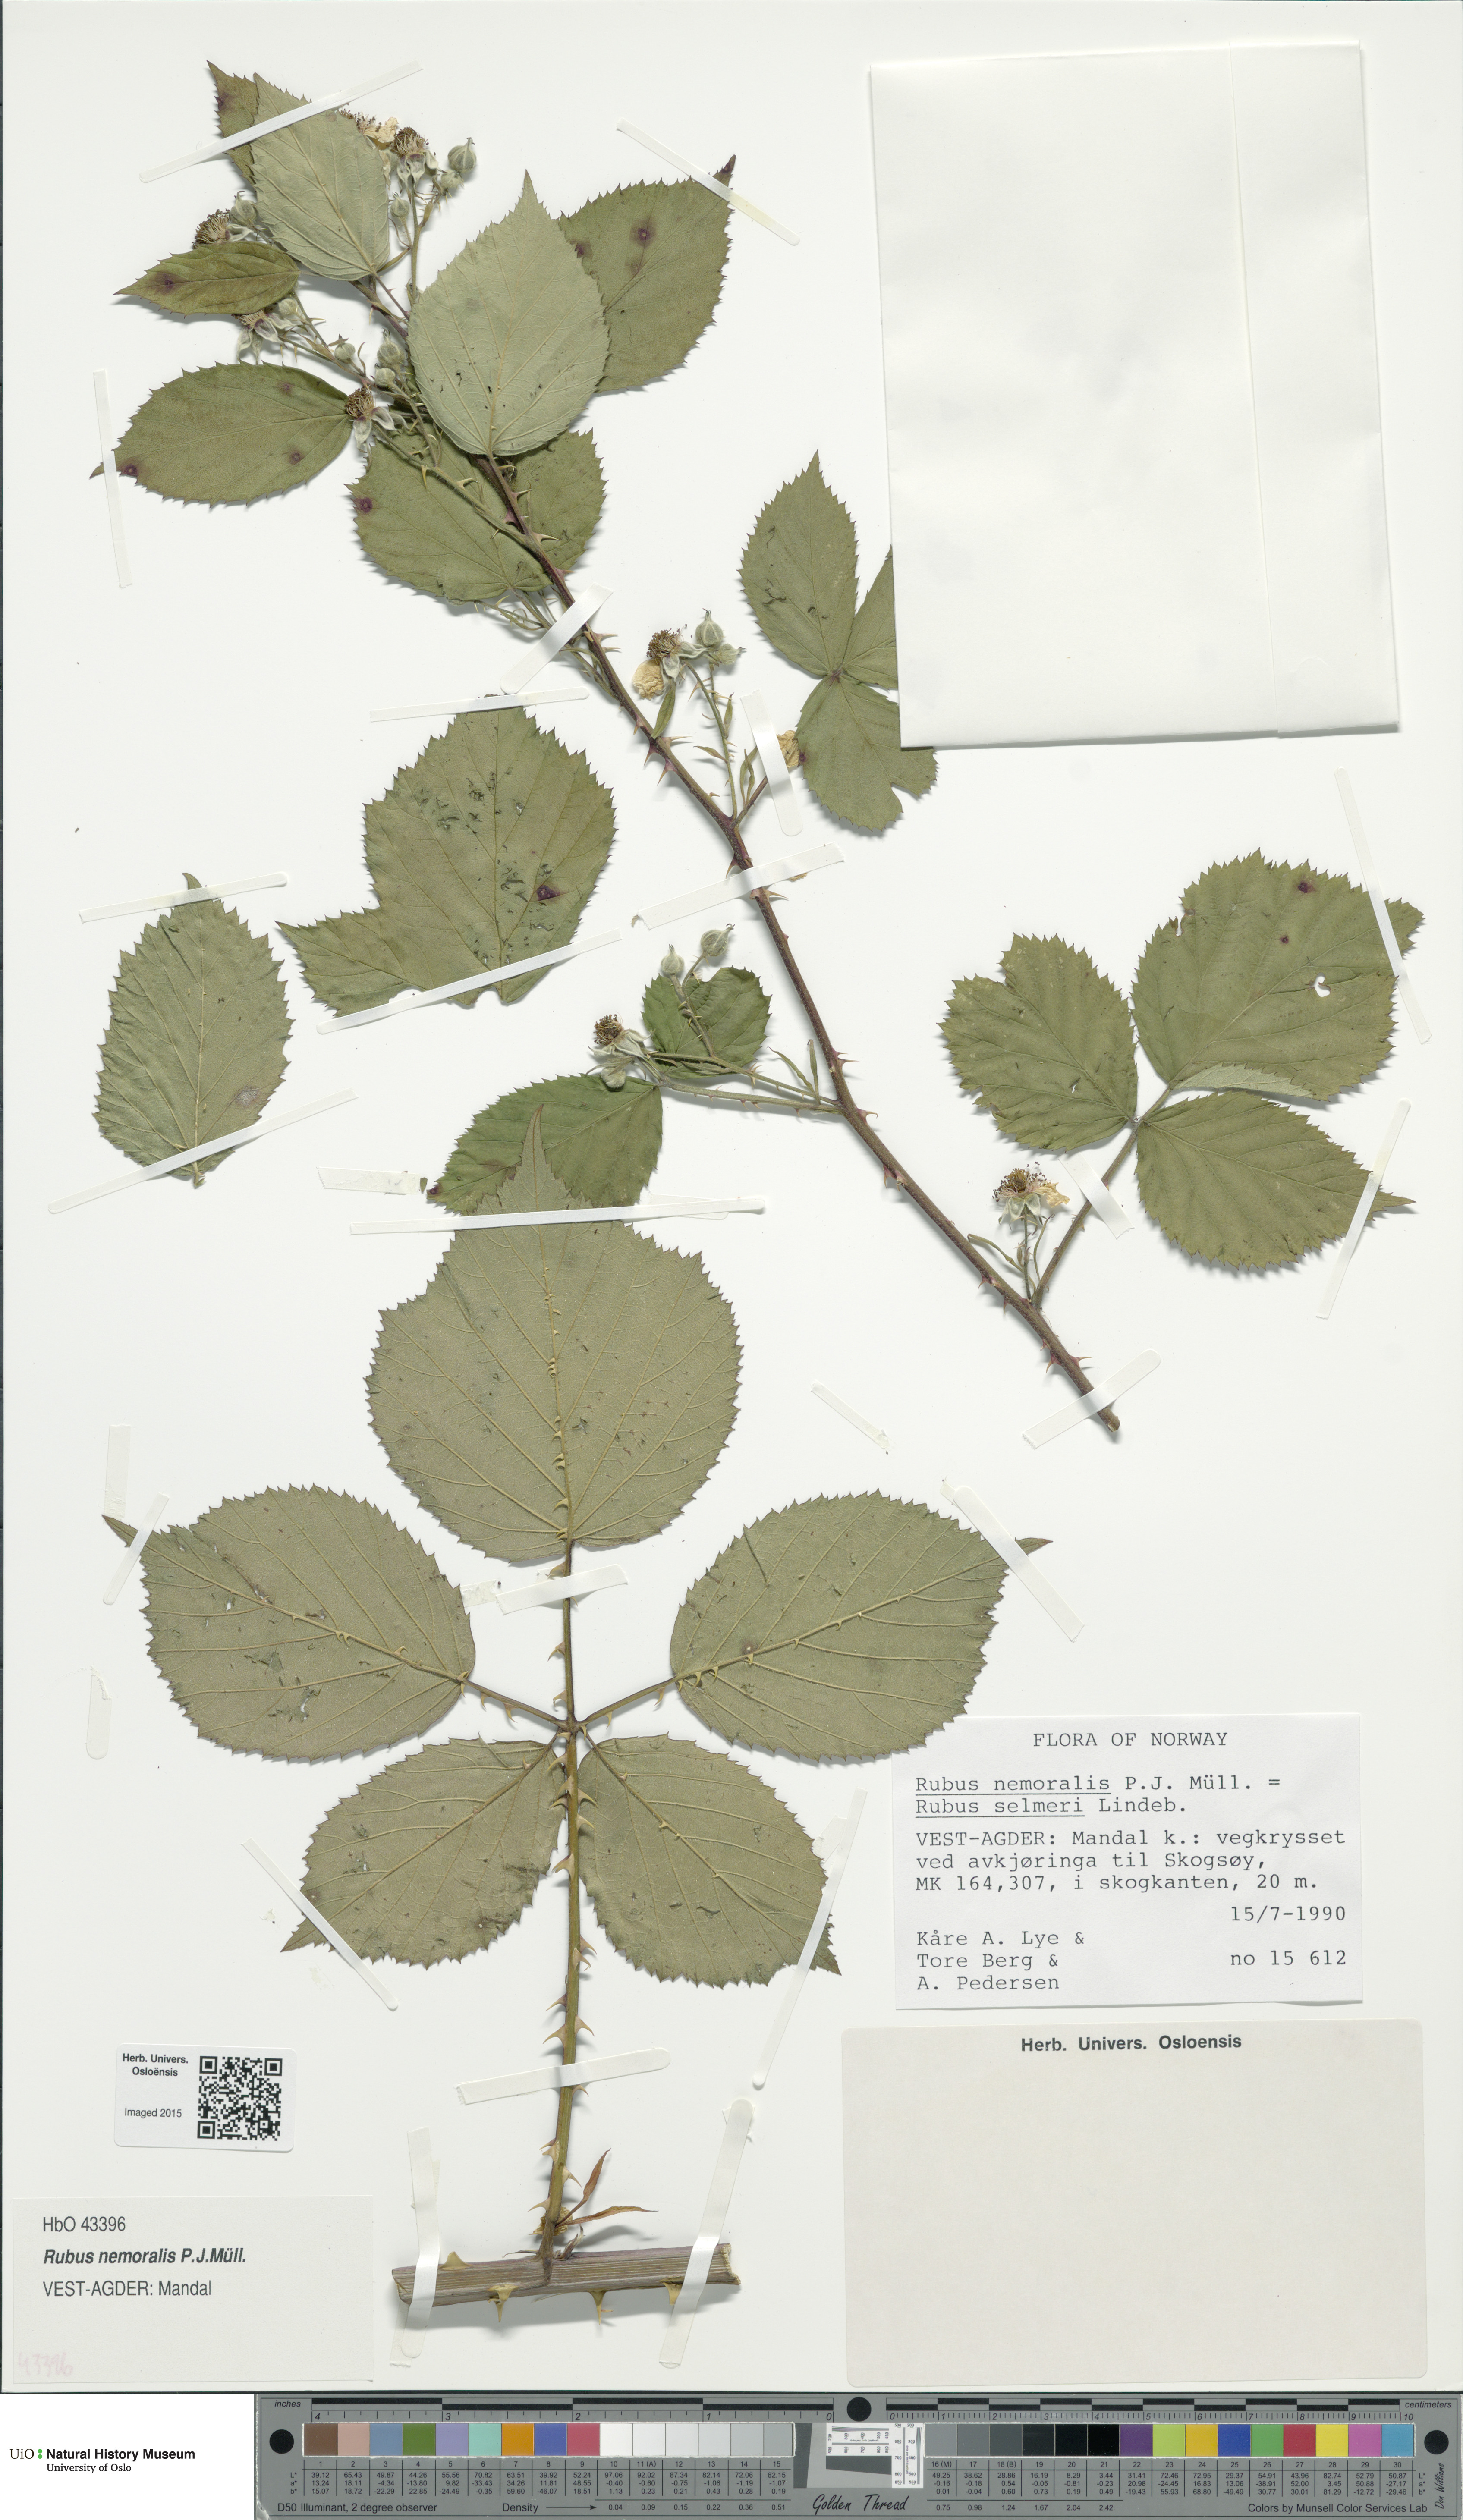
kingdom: Plantae
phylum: Tracheophyta
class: Magnoliopsida
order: Rosales
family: Rosaceae
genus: Rubus
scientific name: Rubus nemoralis
